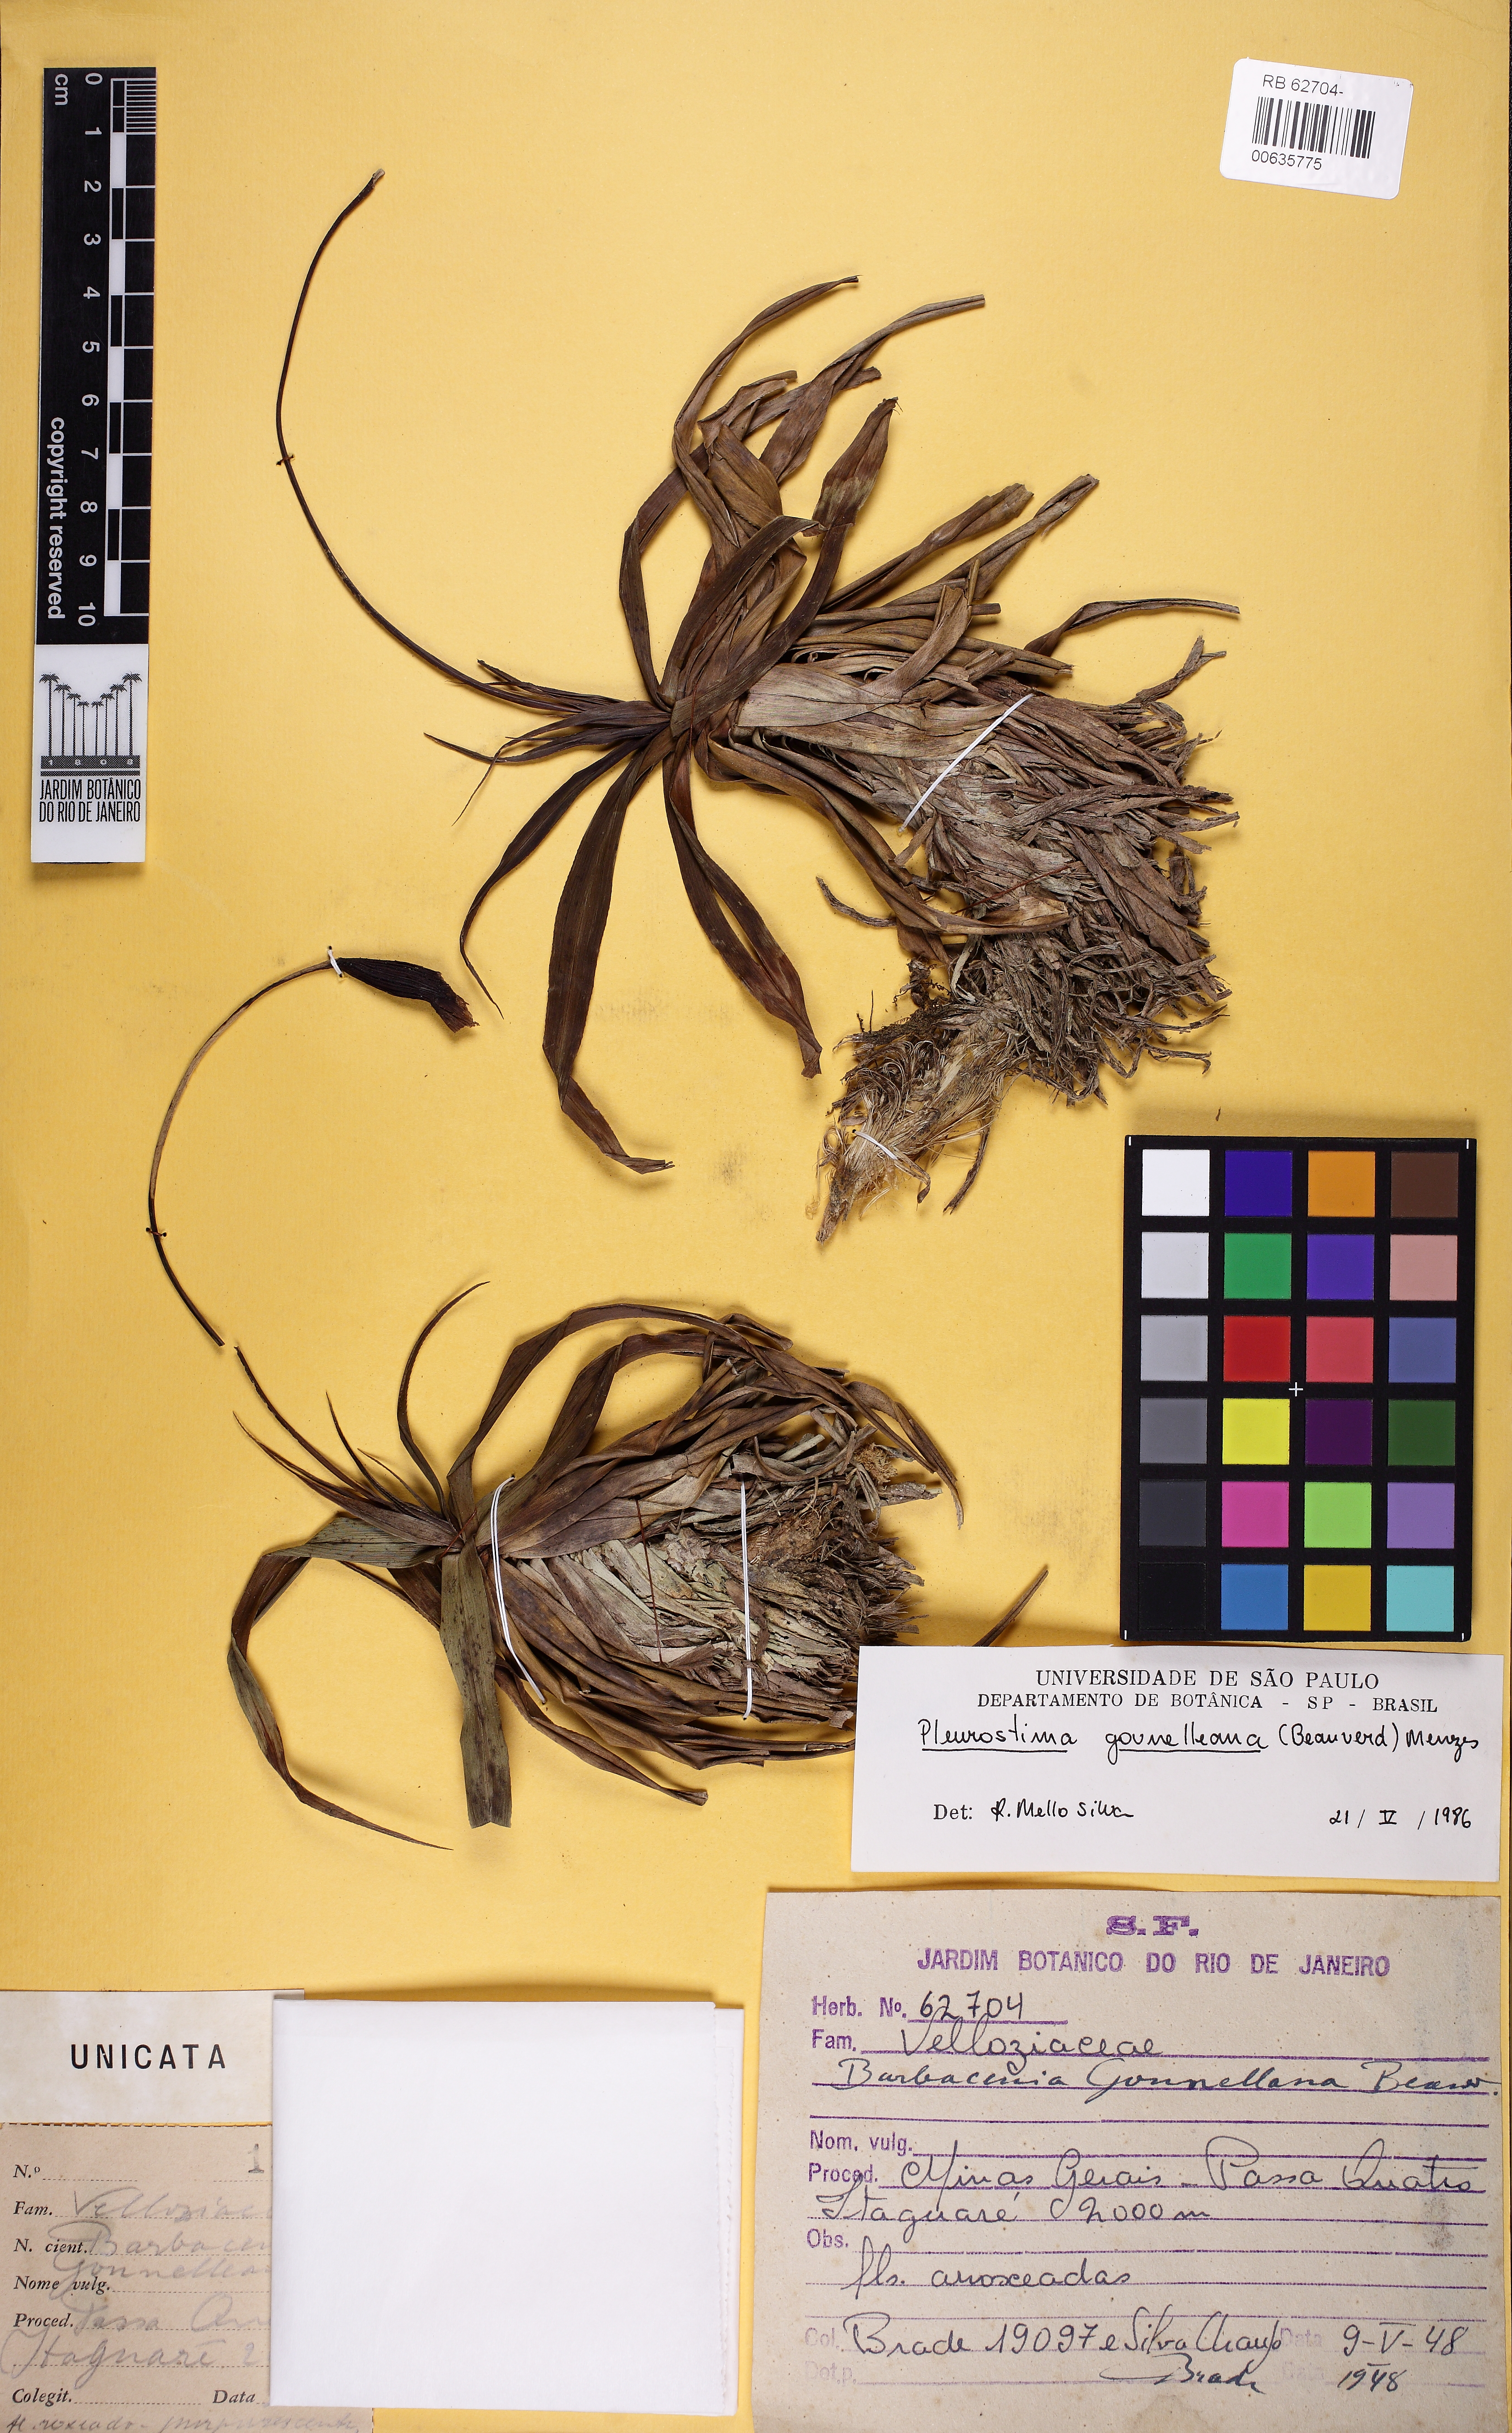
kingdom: Plantae
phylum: Tracheophyta
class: Liliopsida
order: Pandanales
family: Velloziaceae
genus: Barbacenia
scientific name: Barbacenia gounelleana
